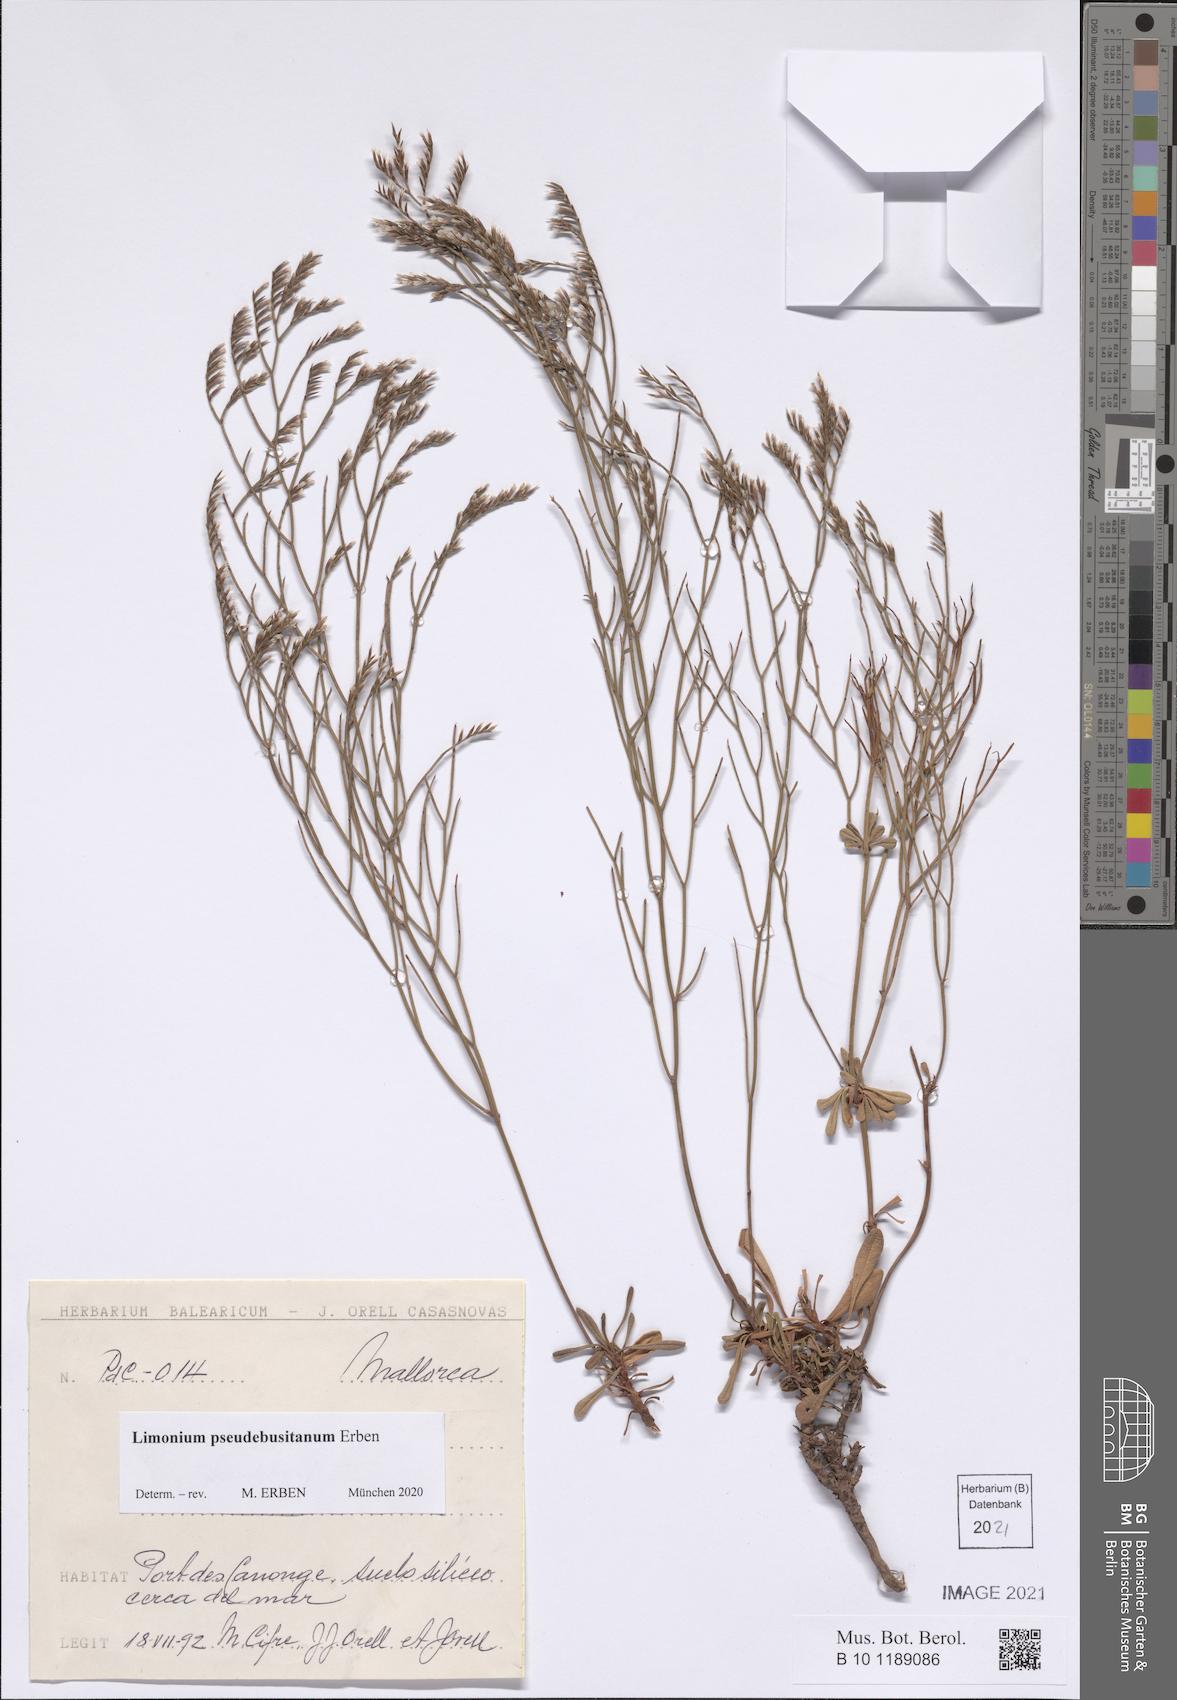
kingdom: Plantae
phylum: Tracheophyta
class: Magnoliopsida
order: Caryophyllales
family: Plumbaginaceae
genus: Limonium
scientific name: Limonium pseudebusitanum
